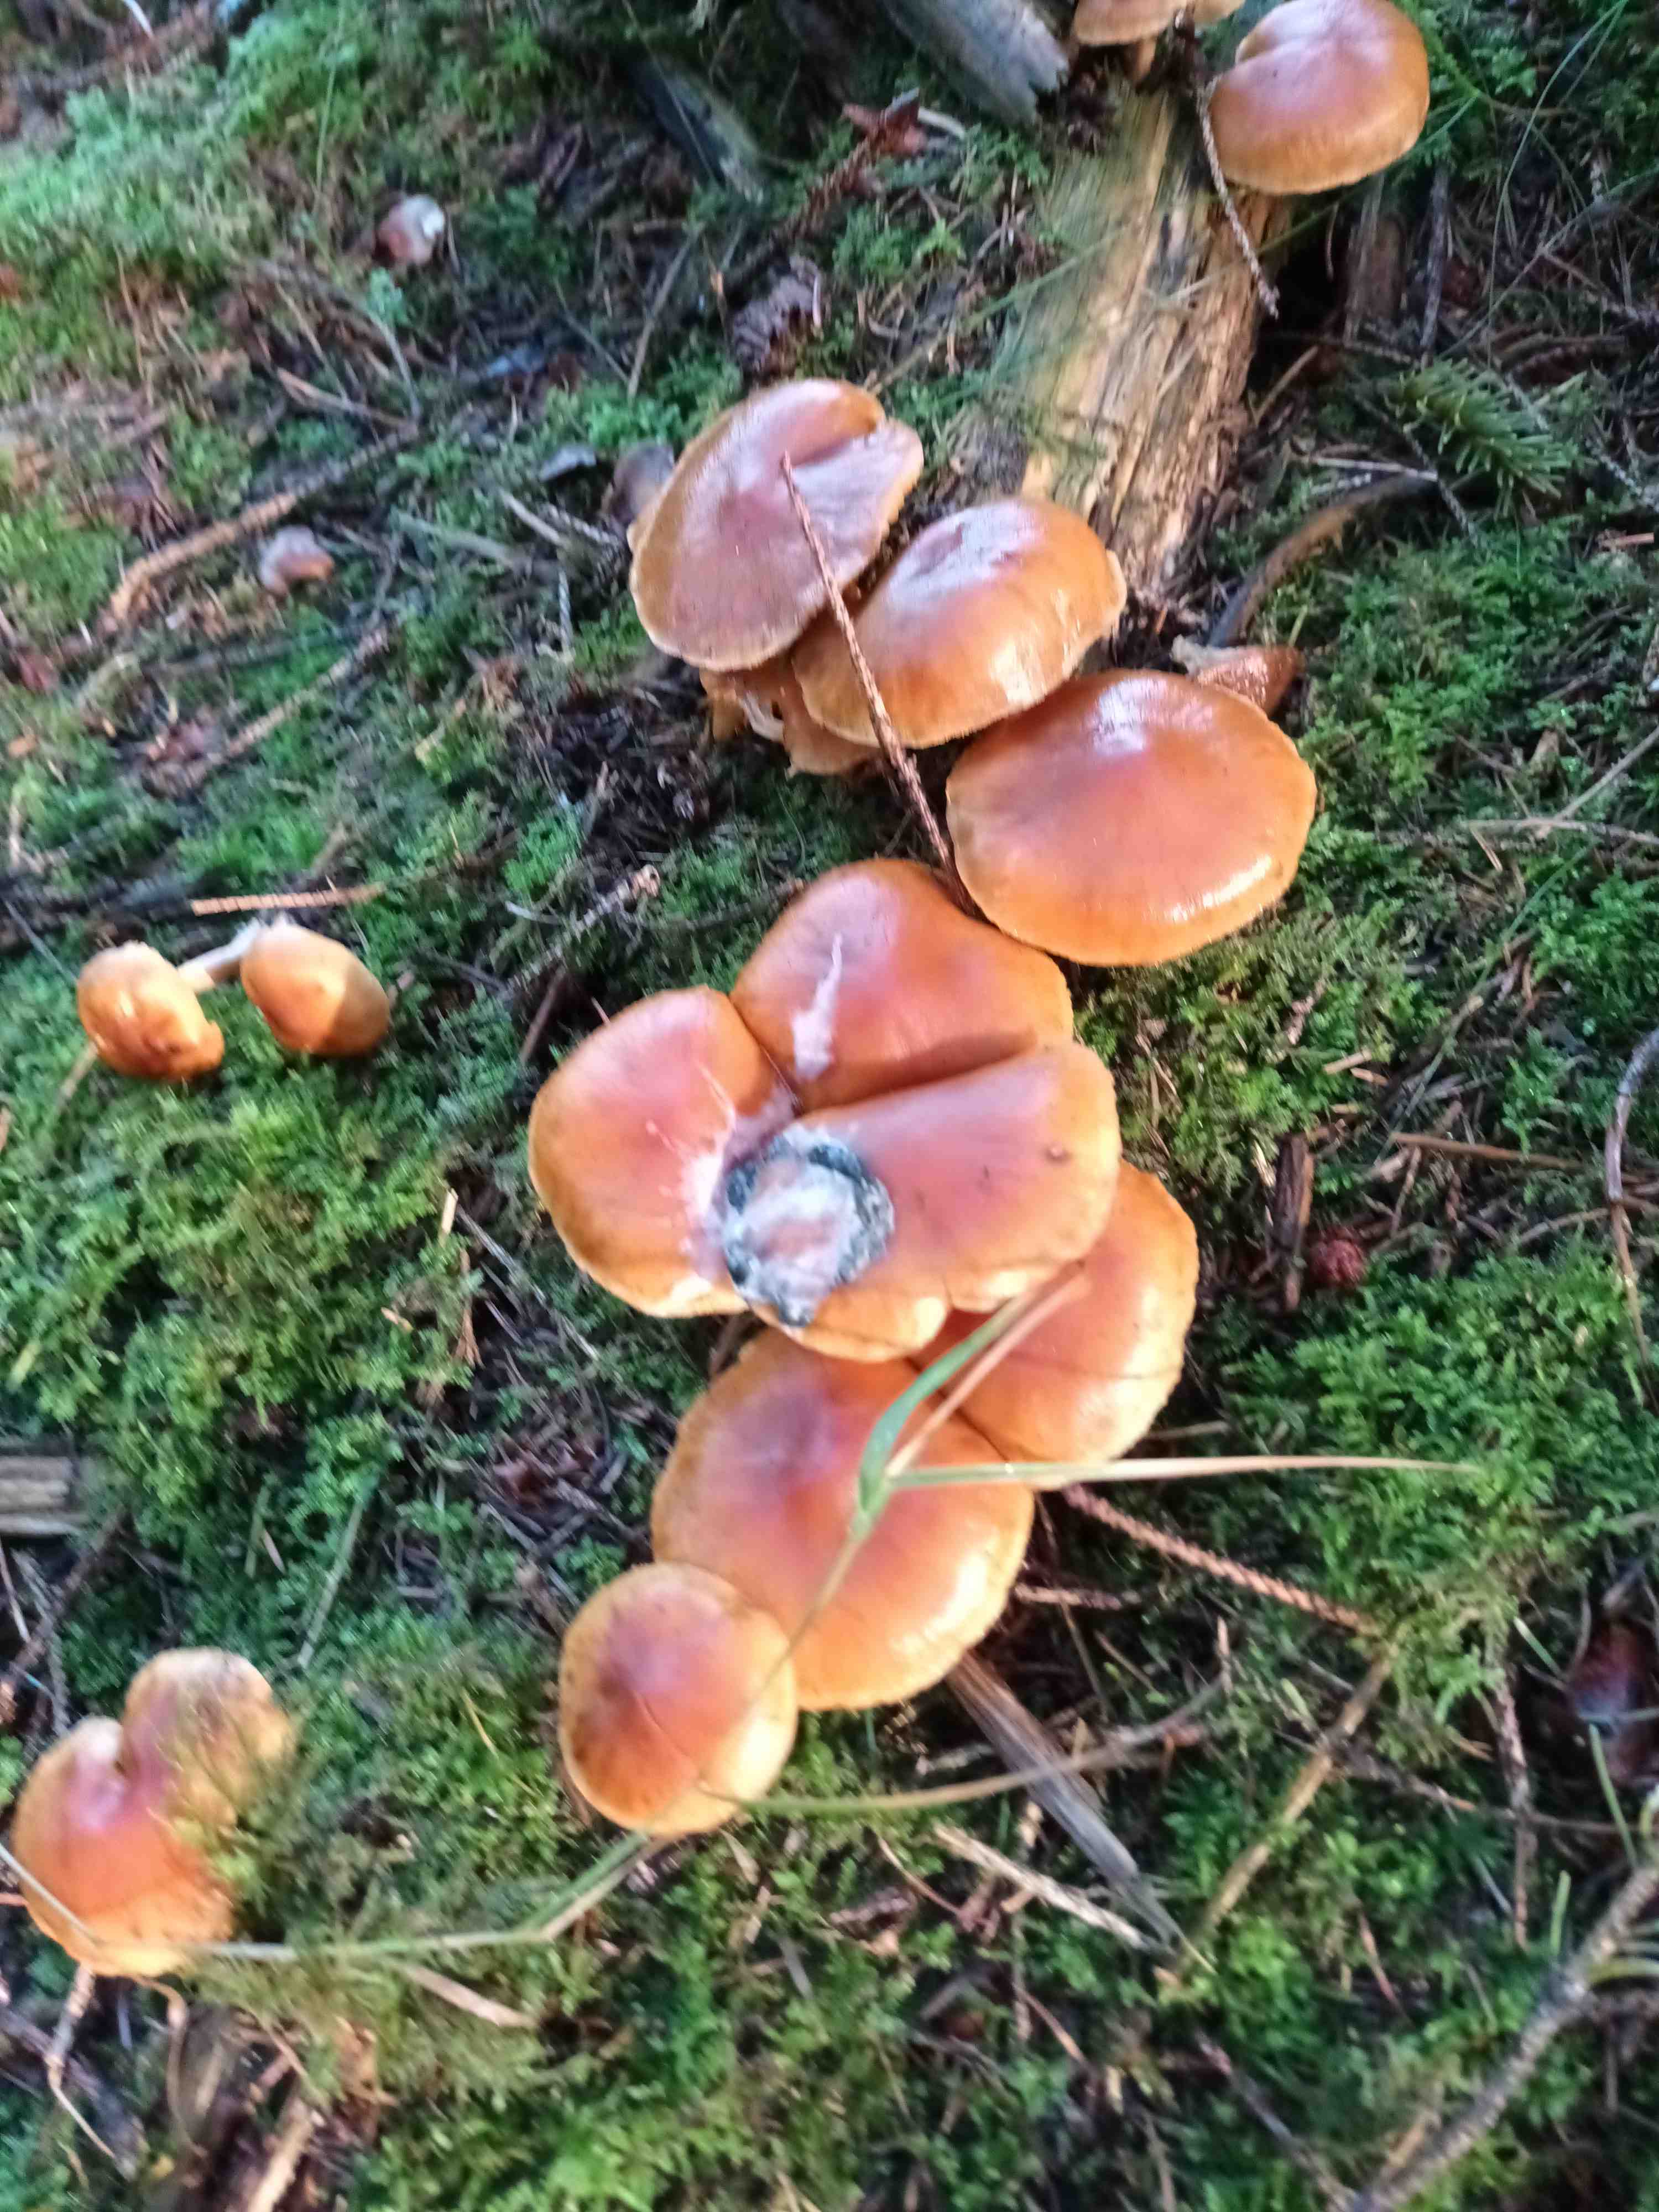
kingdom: Fungi
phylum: Basidiomycota
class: Agaricomycetes
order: Agaricales
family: Hymenogastraceae
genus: Gymnopilus
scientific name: Gymnopilus penetrans
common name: plettet flammehat
